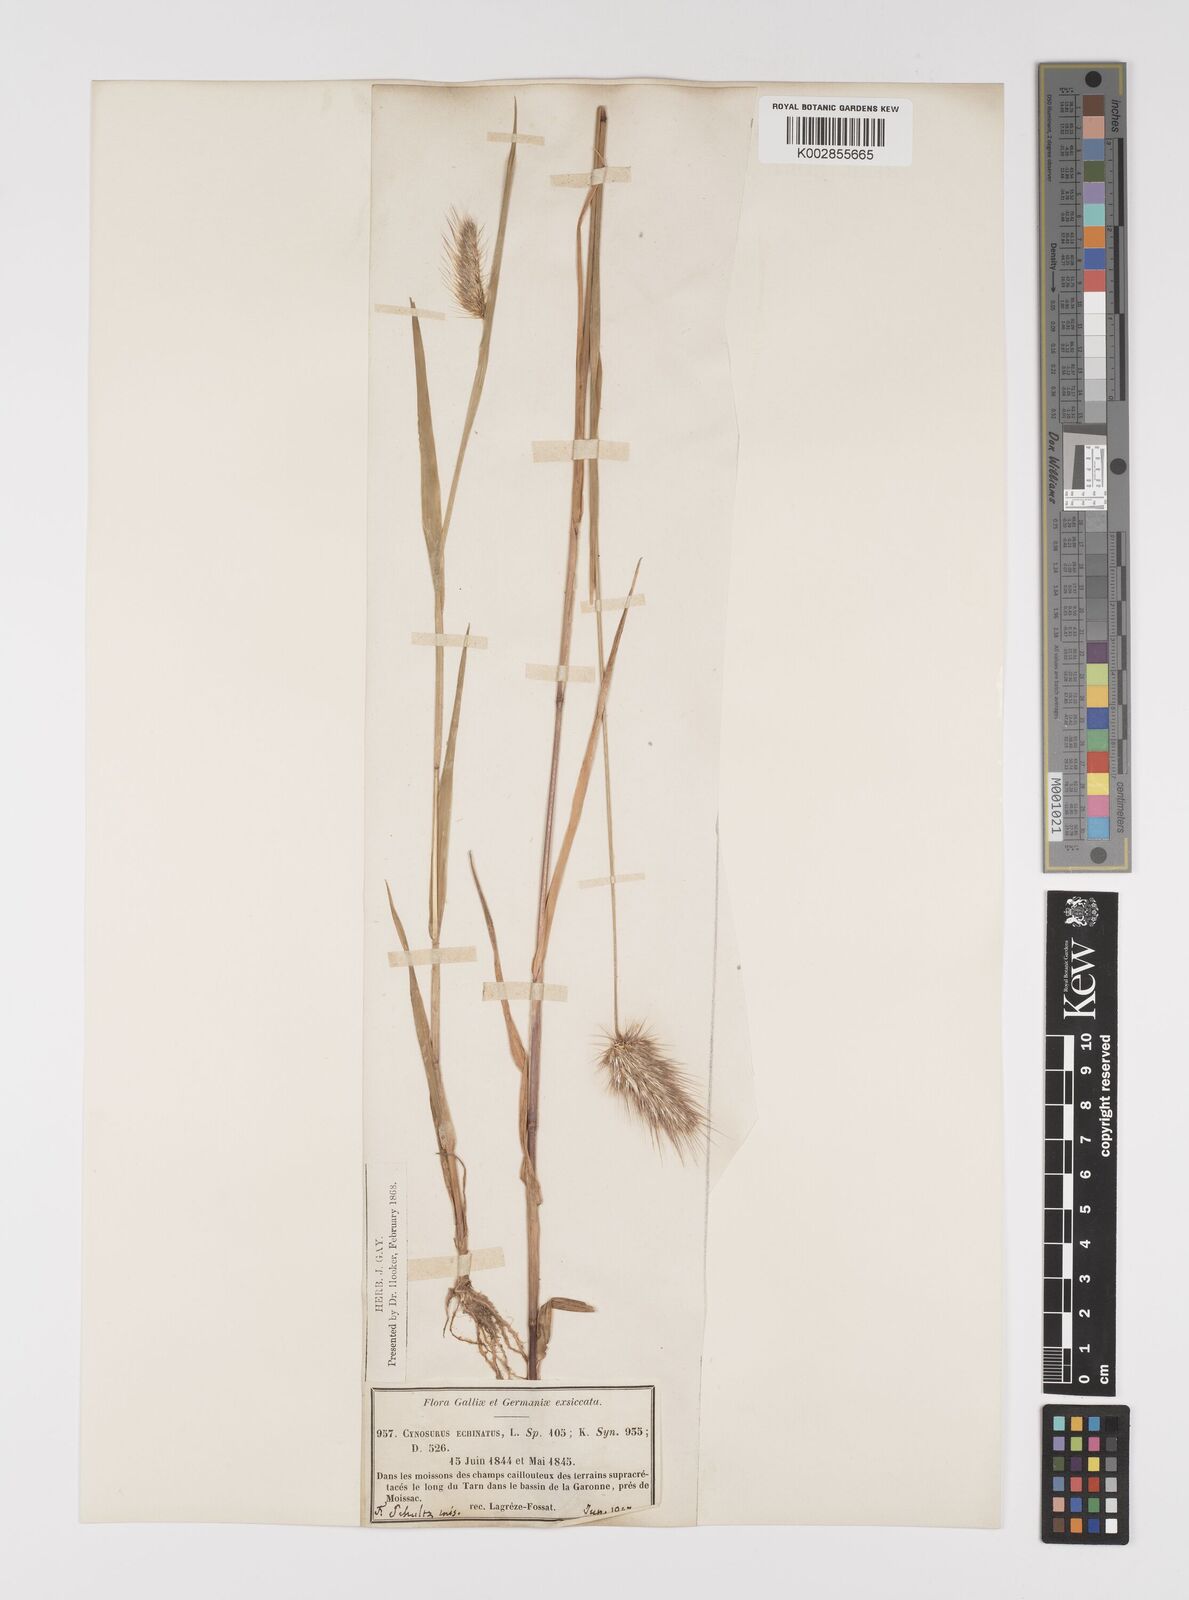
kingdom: Plantae
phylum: Tracheophyta
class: Liliopsida
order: Poales
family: Poaceae
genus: Cynosurus
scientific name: Cynosurus echinatus
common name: Rough dog's-tail
